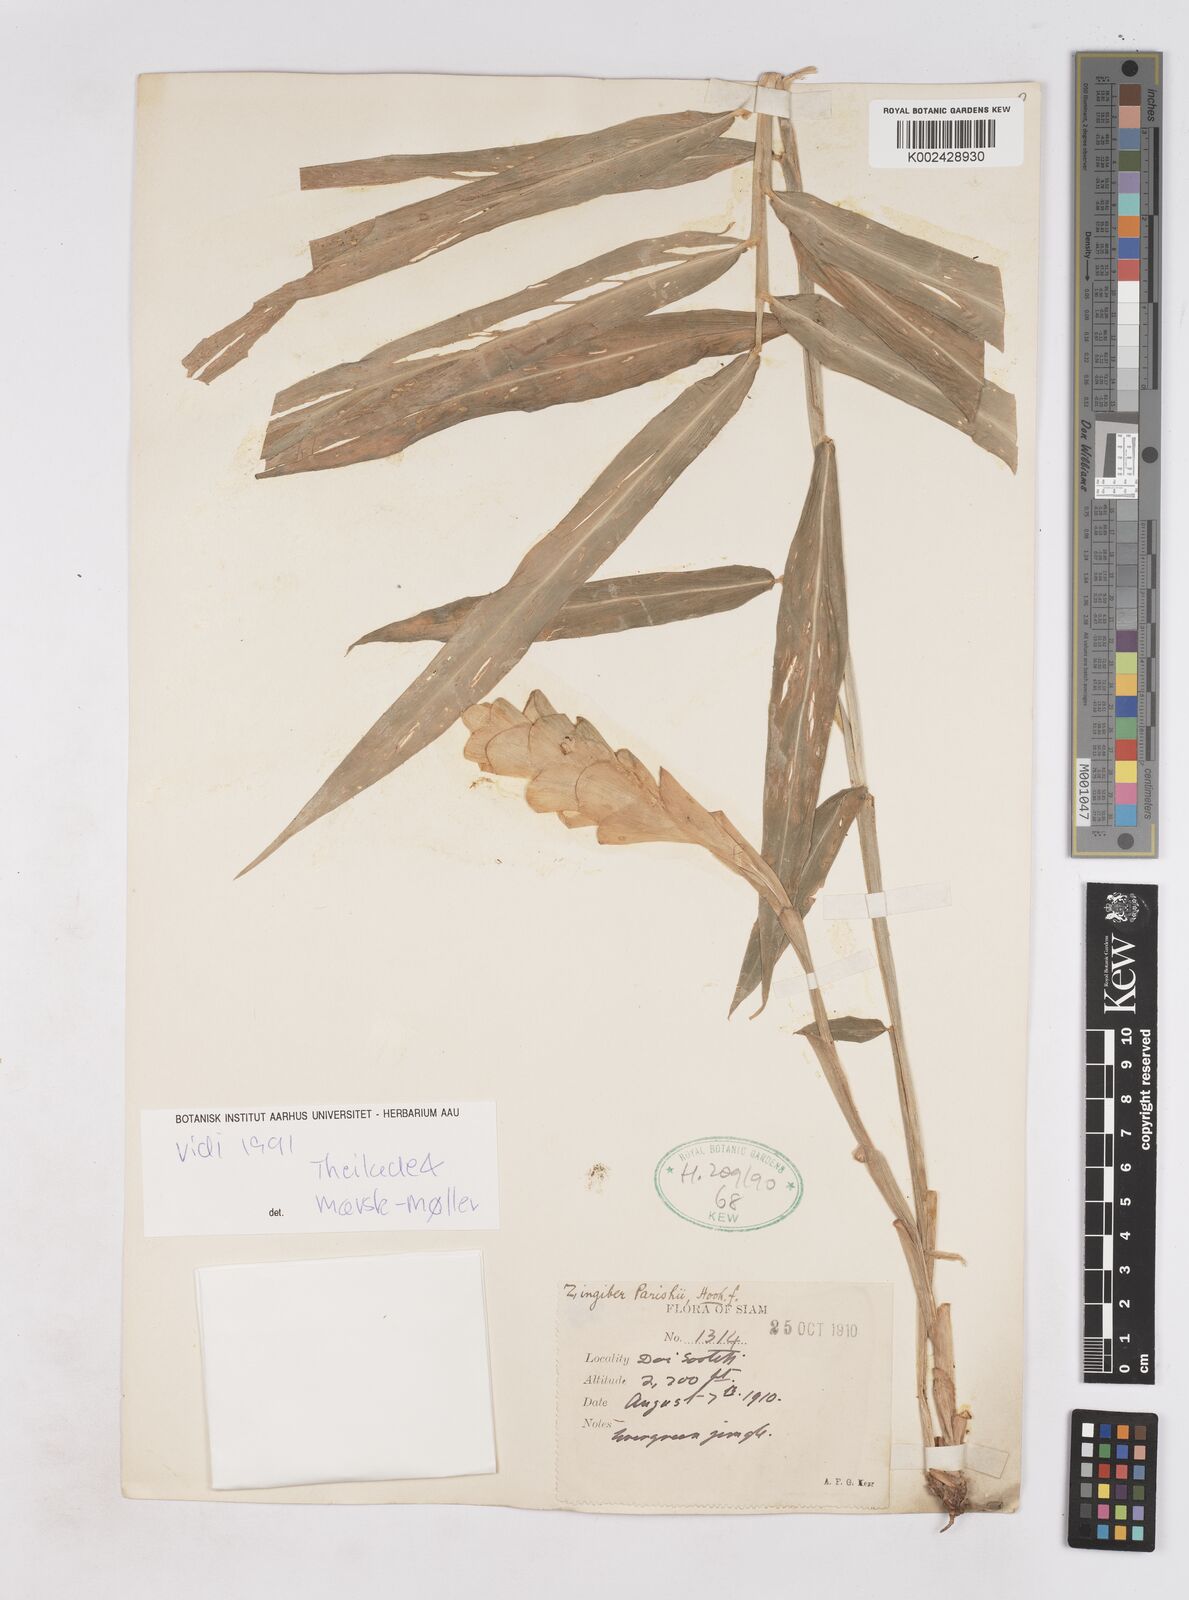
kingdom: Plantae
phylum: Tracheophyta
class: Liliopsida
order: Zingiberales
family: Zingiberaceae
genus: Zingiber
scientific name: Zingiber parishii
